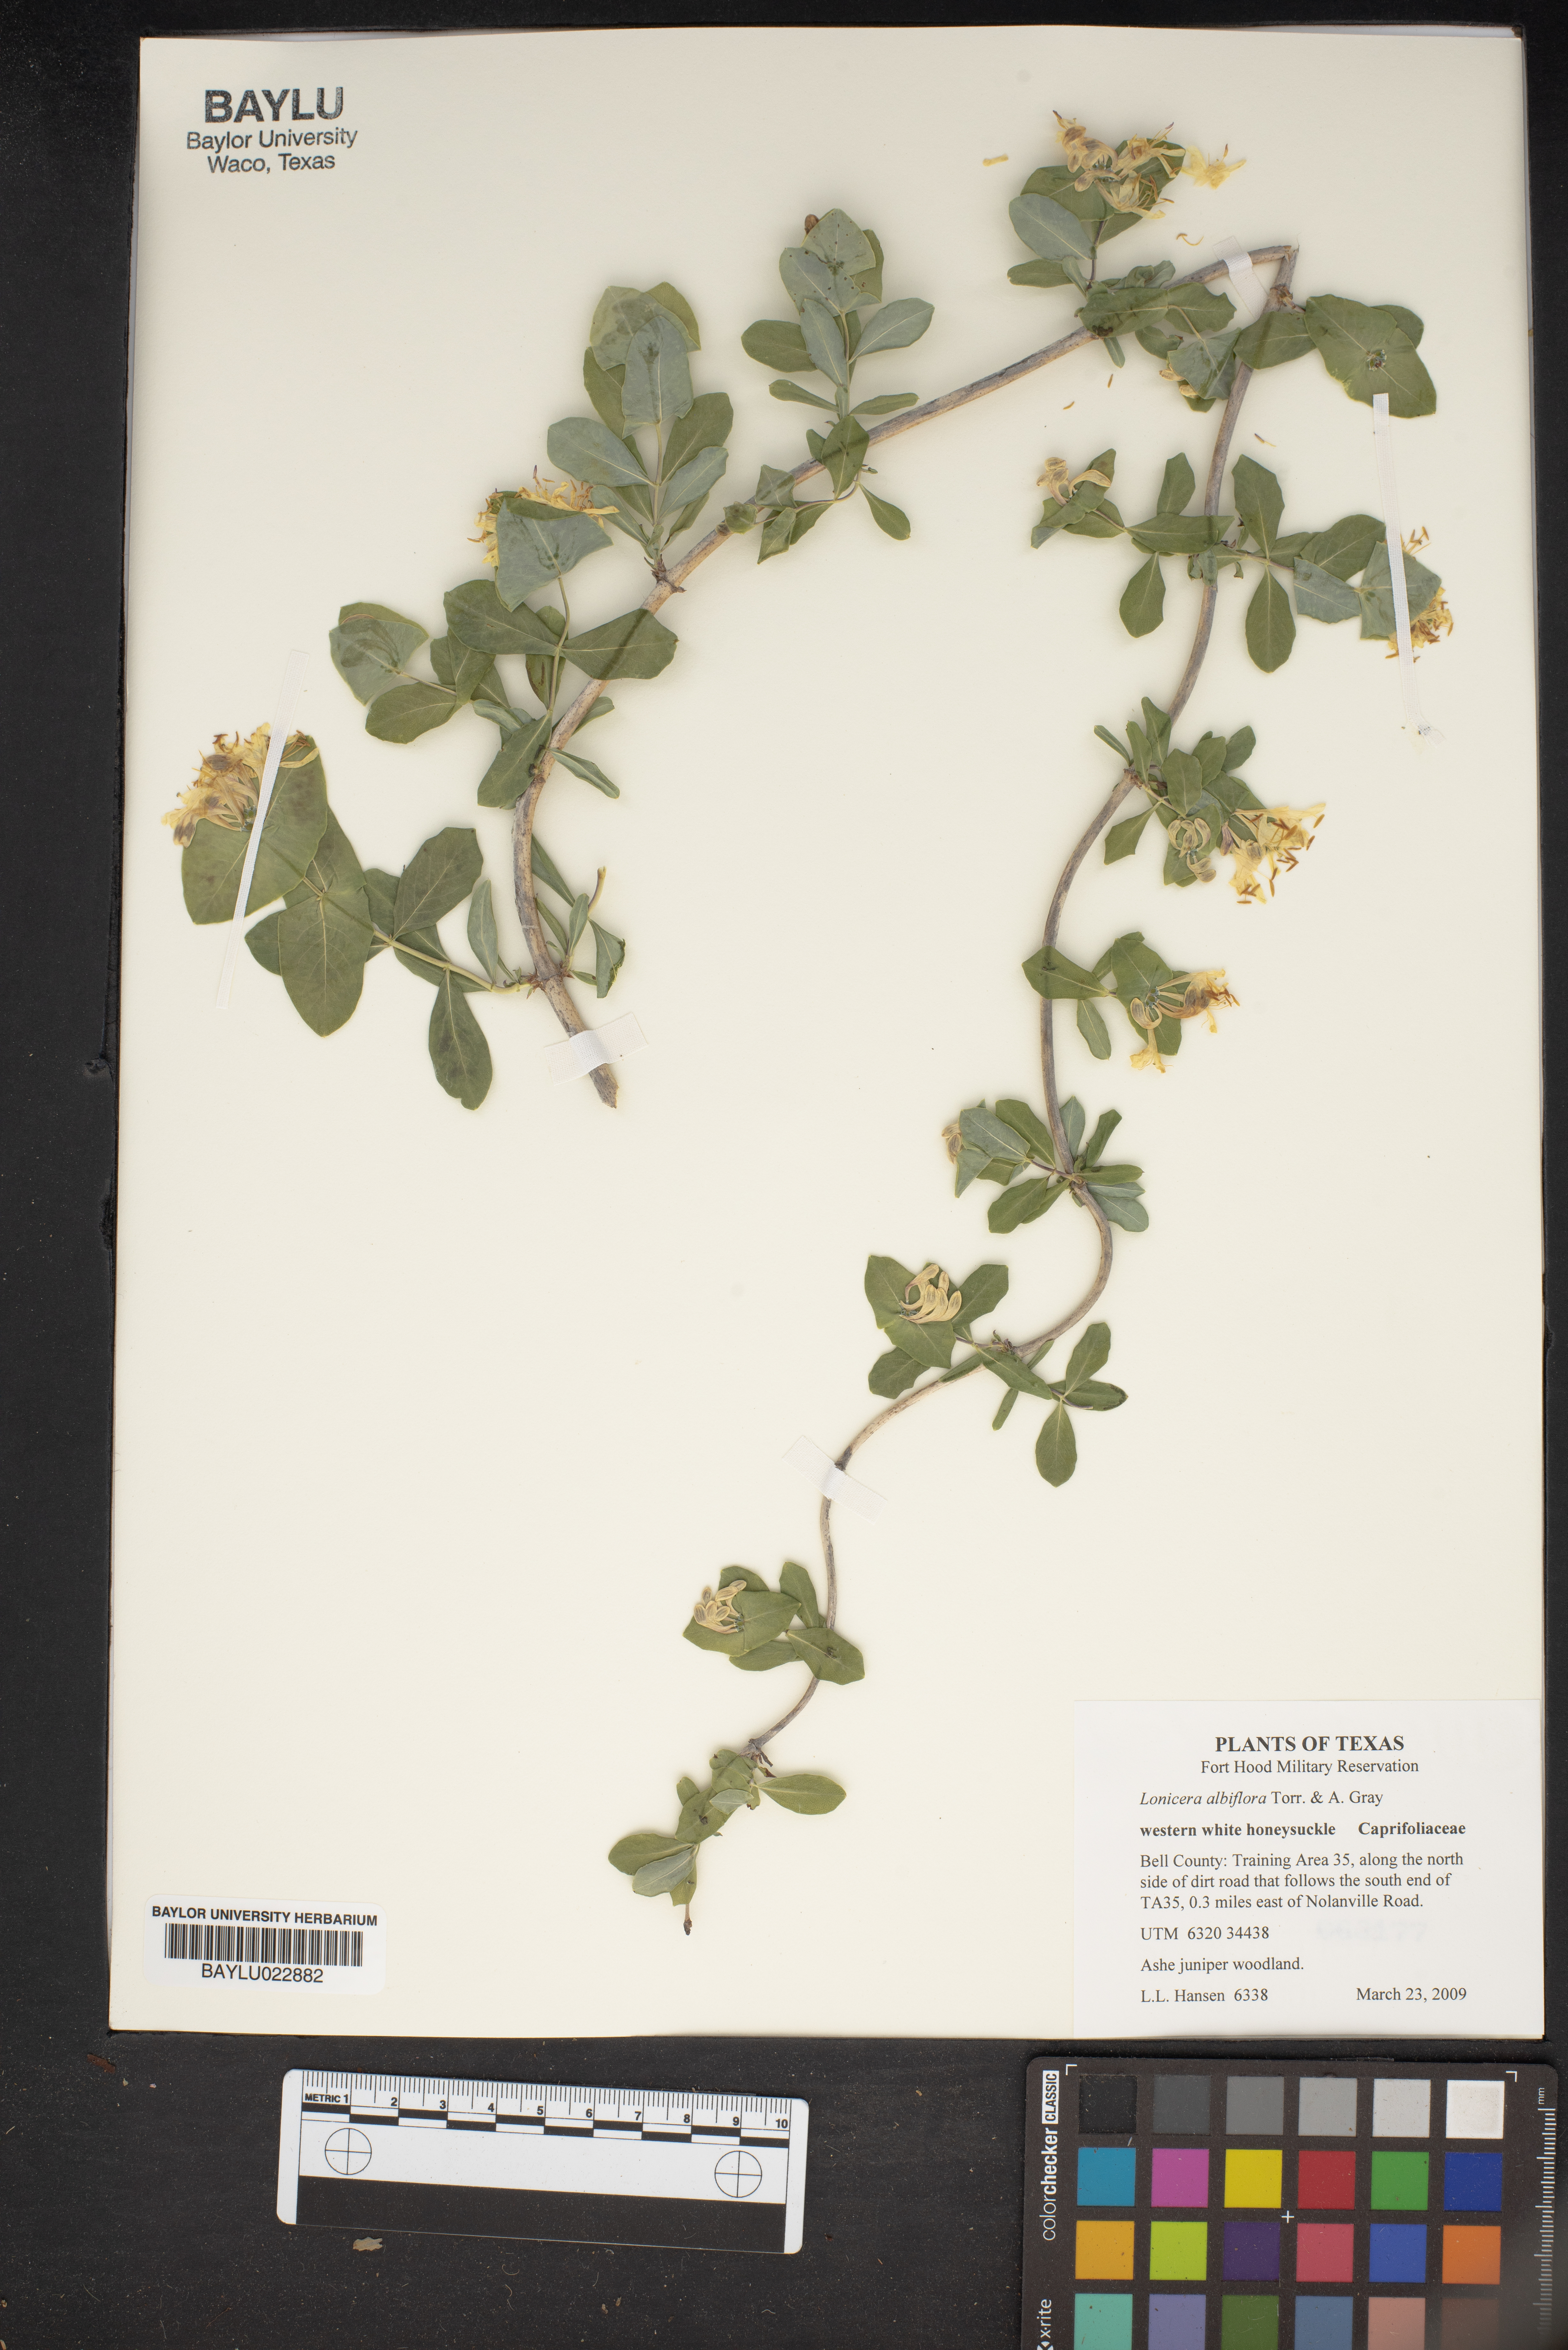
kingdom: Plantae
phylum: Tracheophyta
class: Magnoliopsida
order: Dipsacales
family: Caprifoliaceae
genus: Lonicera
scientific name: Lonicera albiflora
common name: White honeysuckle
